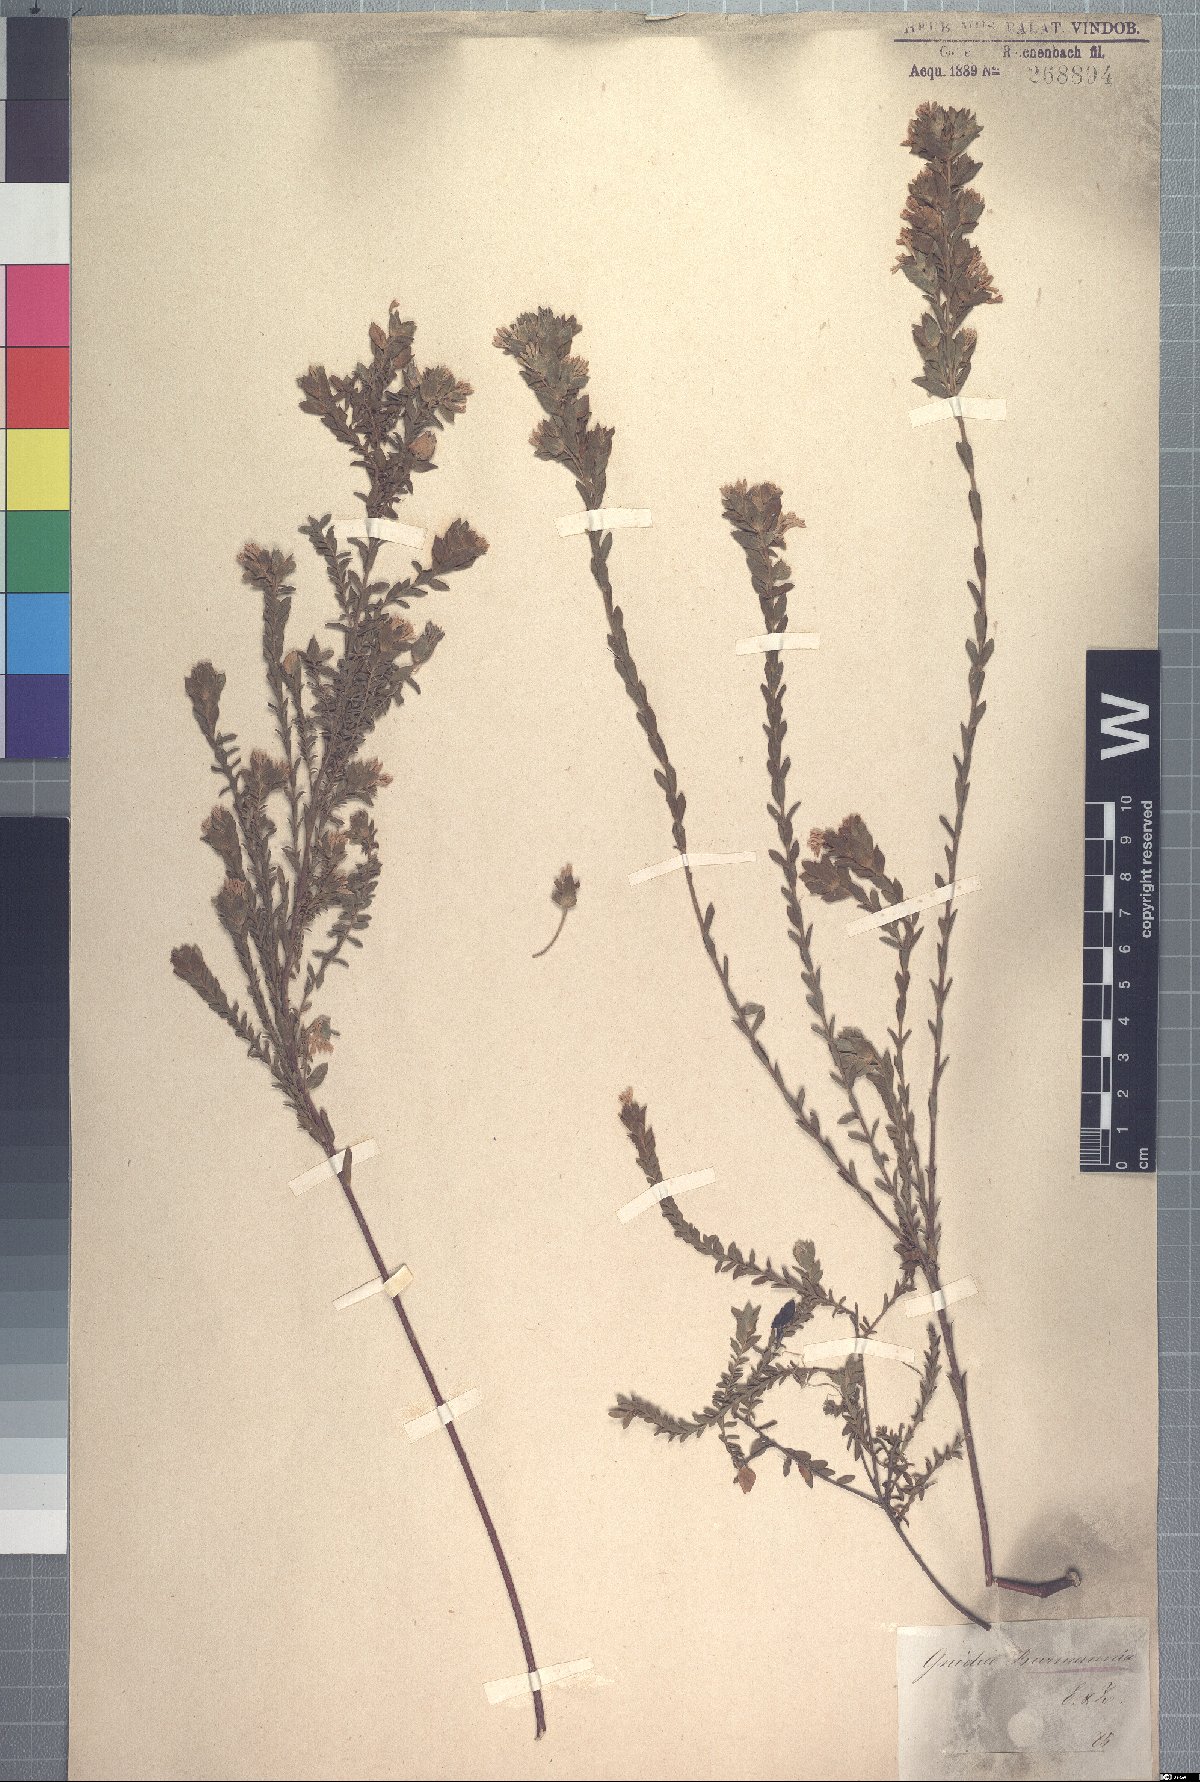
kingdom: Plantae
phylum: Tracheophyta
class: Magnoliopsida
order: Malvales
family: Thymelaeaceae
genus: Gnidia
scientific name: Gnidia burmanni
